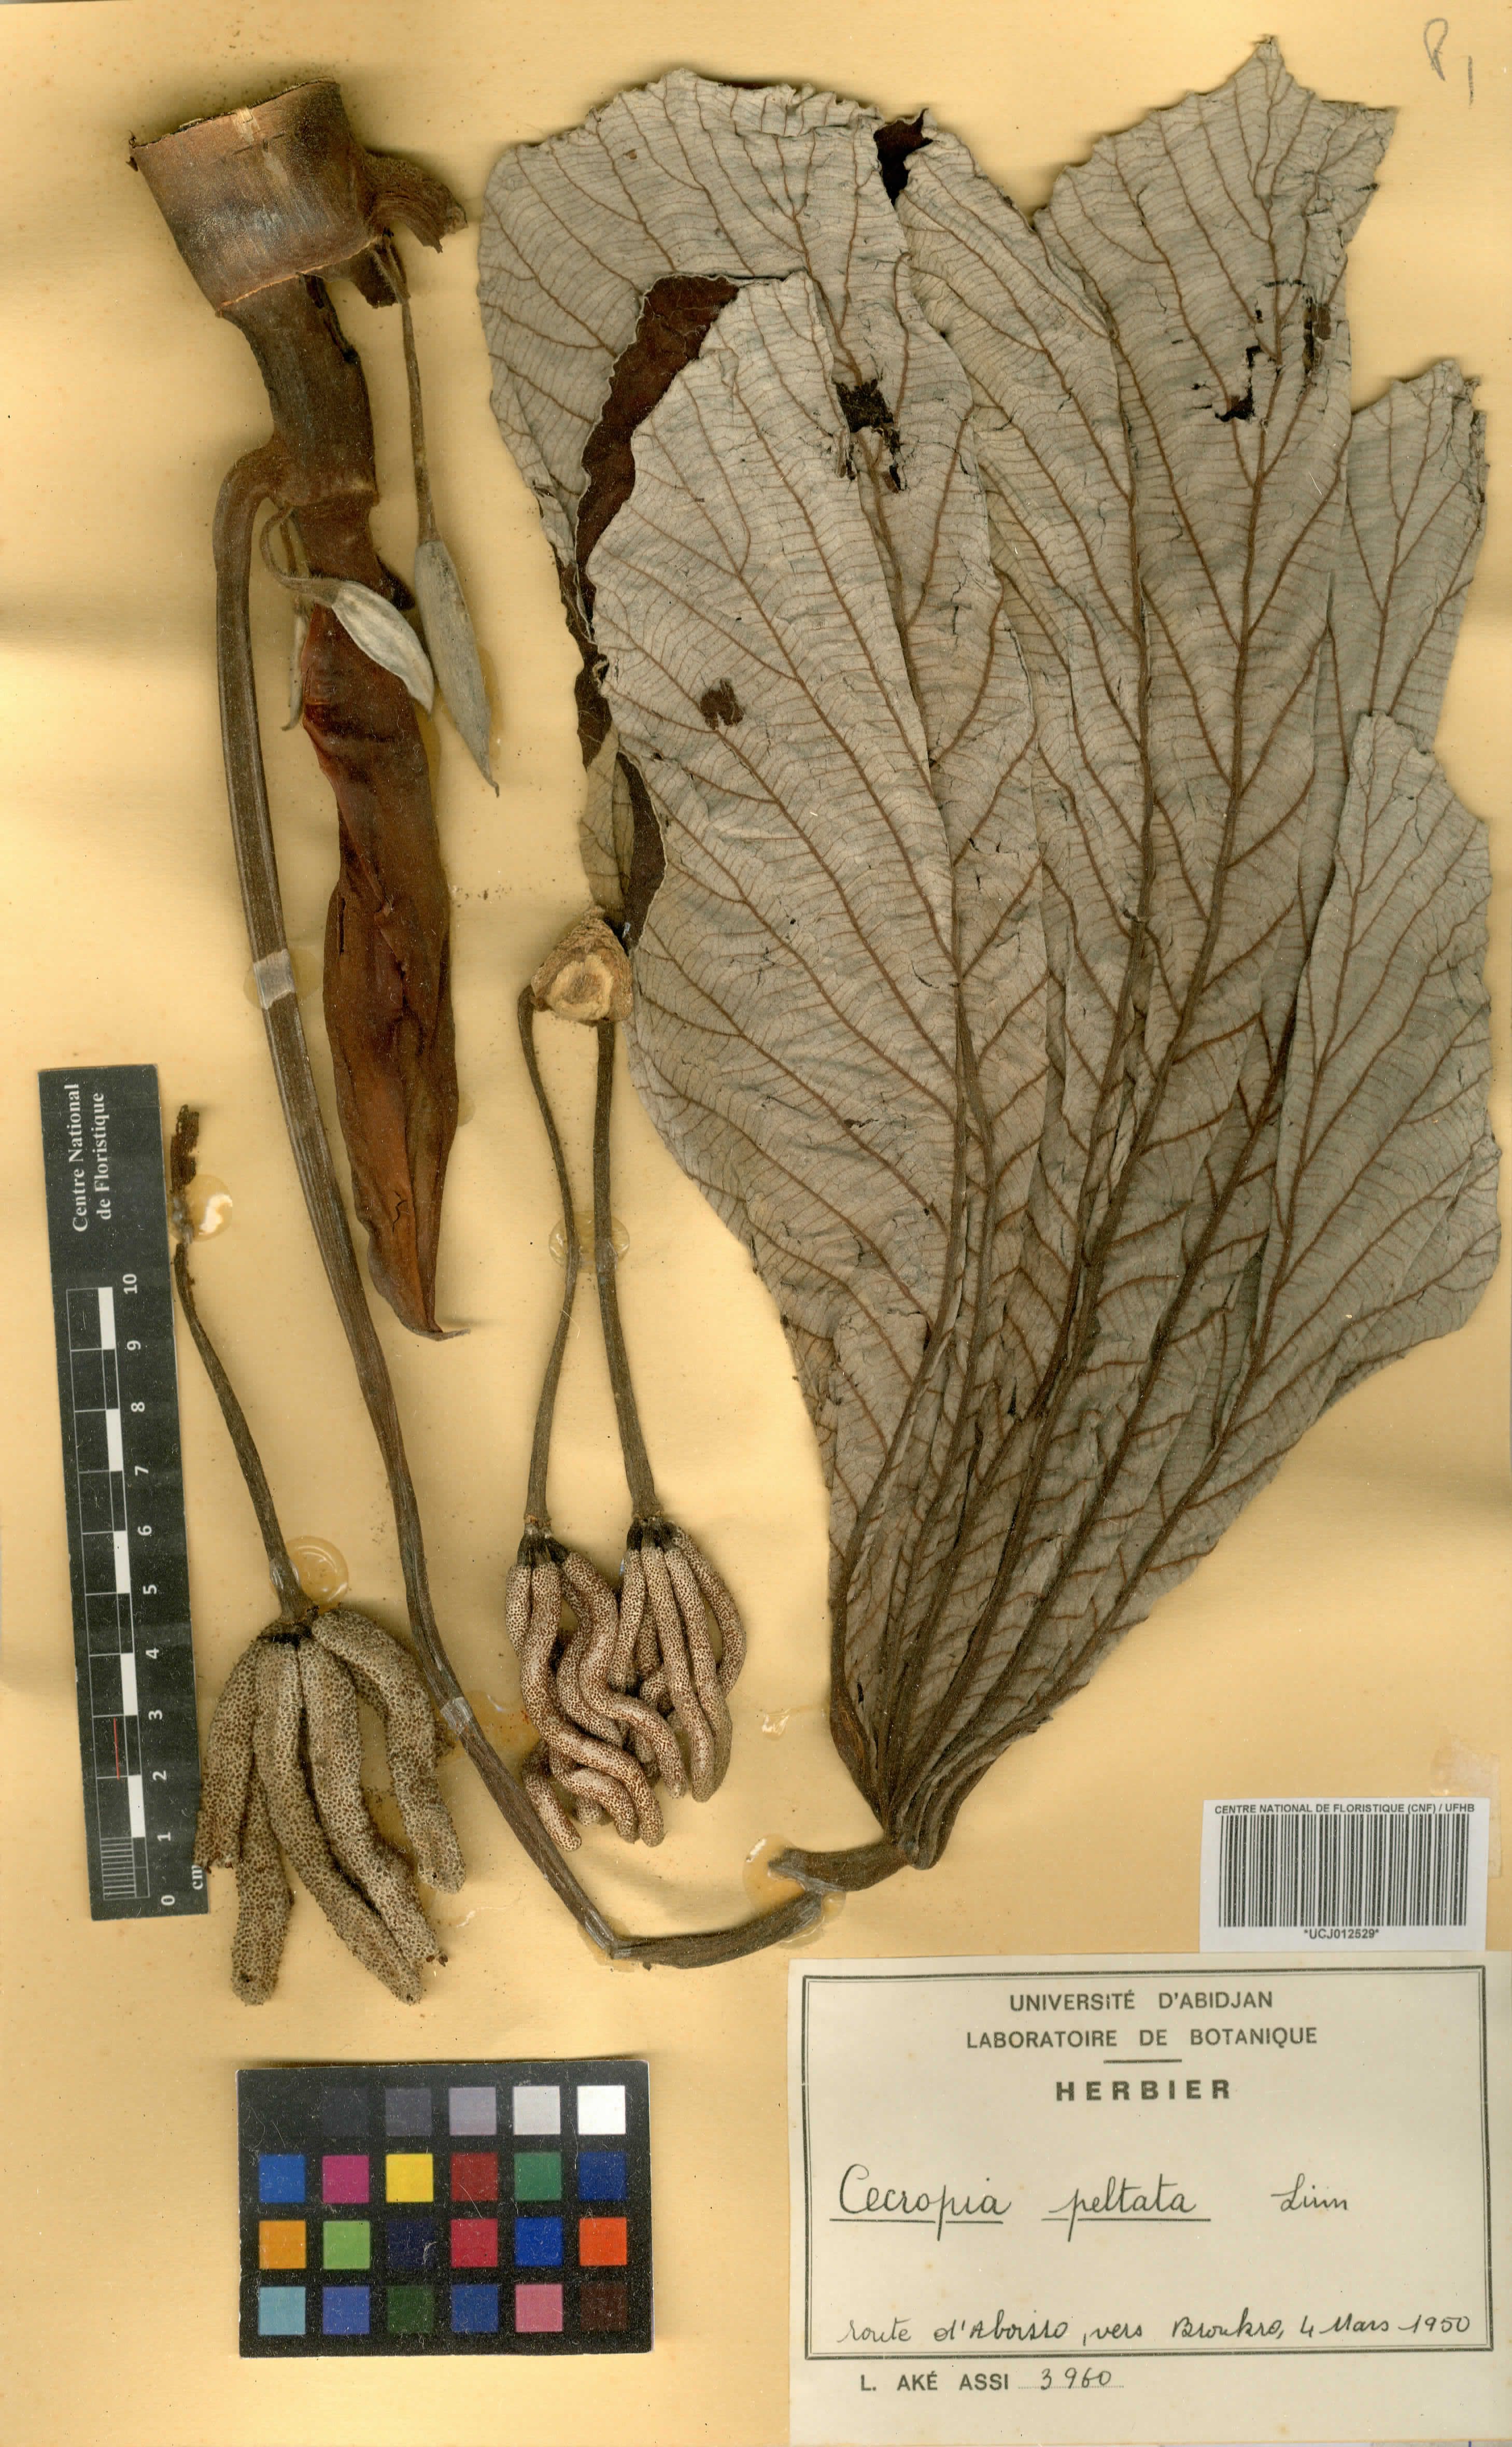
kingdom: Plantae
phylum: Tracheophyta
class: Magnoliopsida
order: Rosales
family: Urticaceae
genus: Cecropia
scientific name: Cecropia peltata
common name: Trumpet-tree
